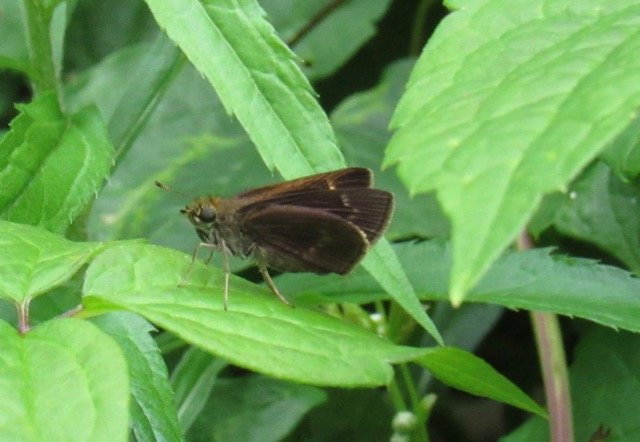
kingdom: Animalia
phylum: Arthropoda
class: Insecta
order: Lepidoptera
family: Hesperiidae
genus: Polites
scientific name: Polites egeremet
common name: Northern Broken-Dash
